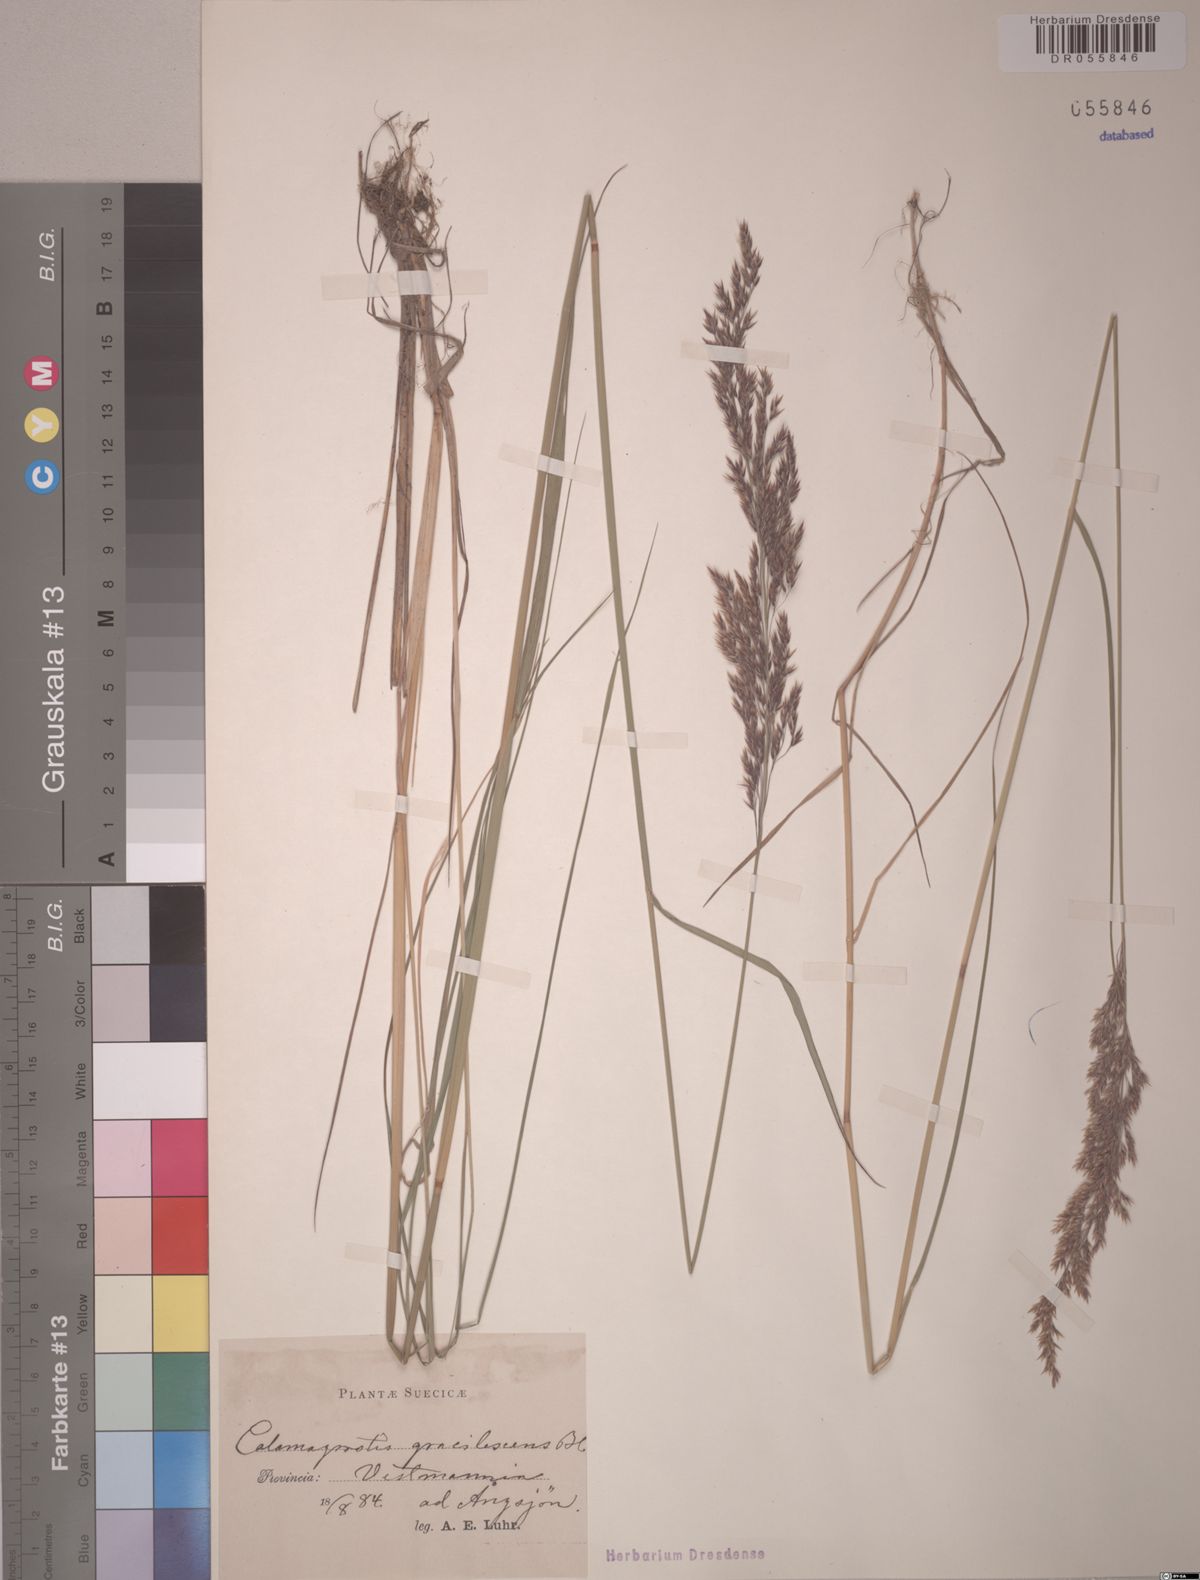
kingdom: Plantae
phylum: Tracheophyta
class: Liliopsida
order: Poales
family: Poaceae
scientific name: Poaceae
